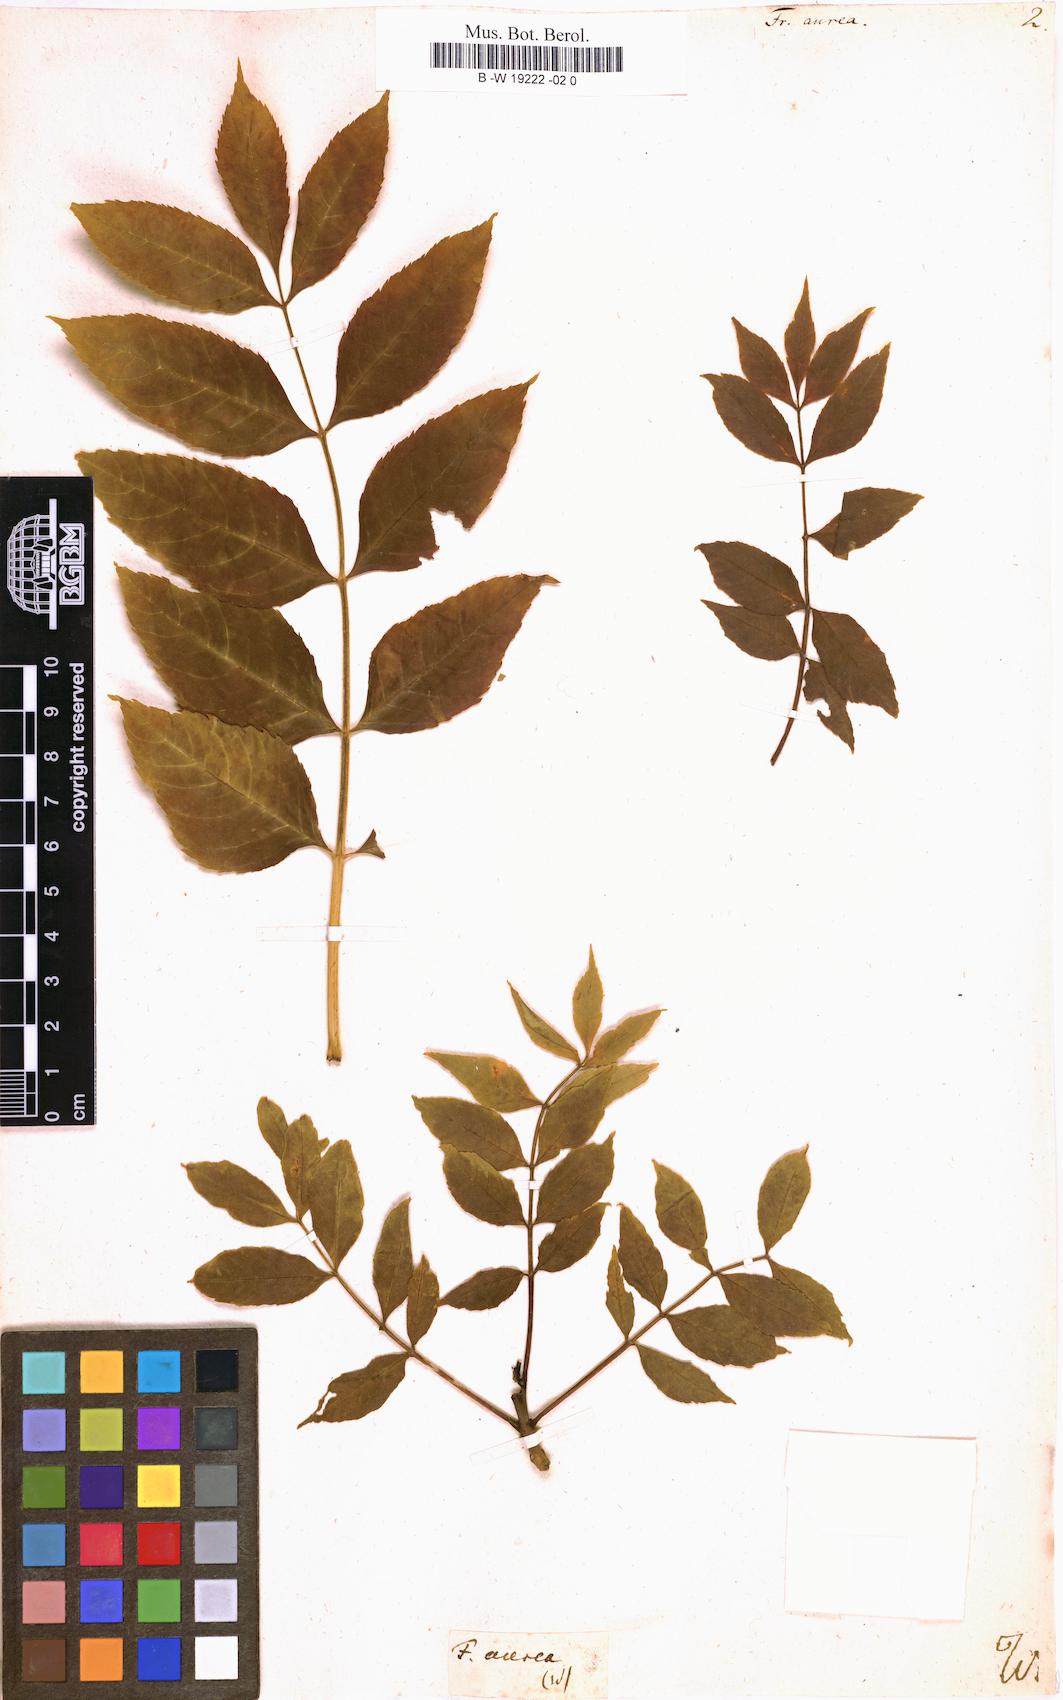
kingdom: Plantae
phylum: Tracheophyta
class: Magnoliopsida
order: Lamiales
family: Oleaceae
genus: Fraxinus
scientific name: Fraxinus excelsior
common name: European ash
